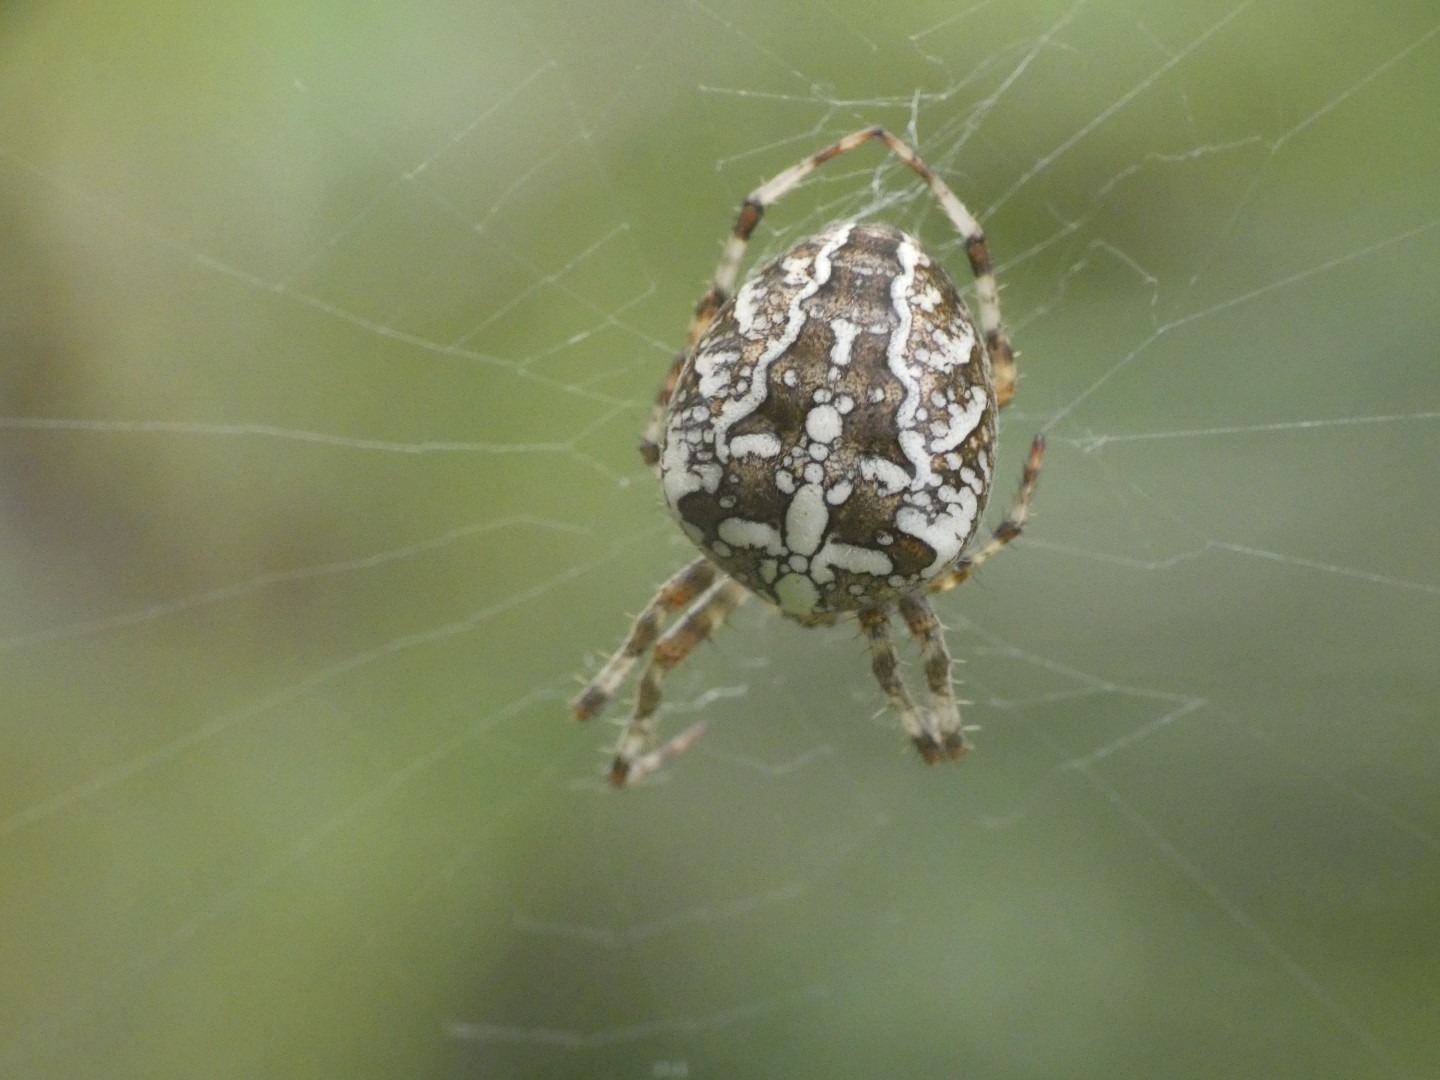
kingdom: Animalia
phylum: Arthropoda
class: Arachnida
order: Araneae
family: Araneidae
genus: Araneus
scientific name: Araneus diadematus
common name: Korsedderkop
